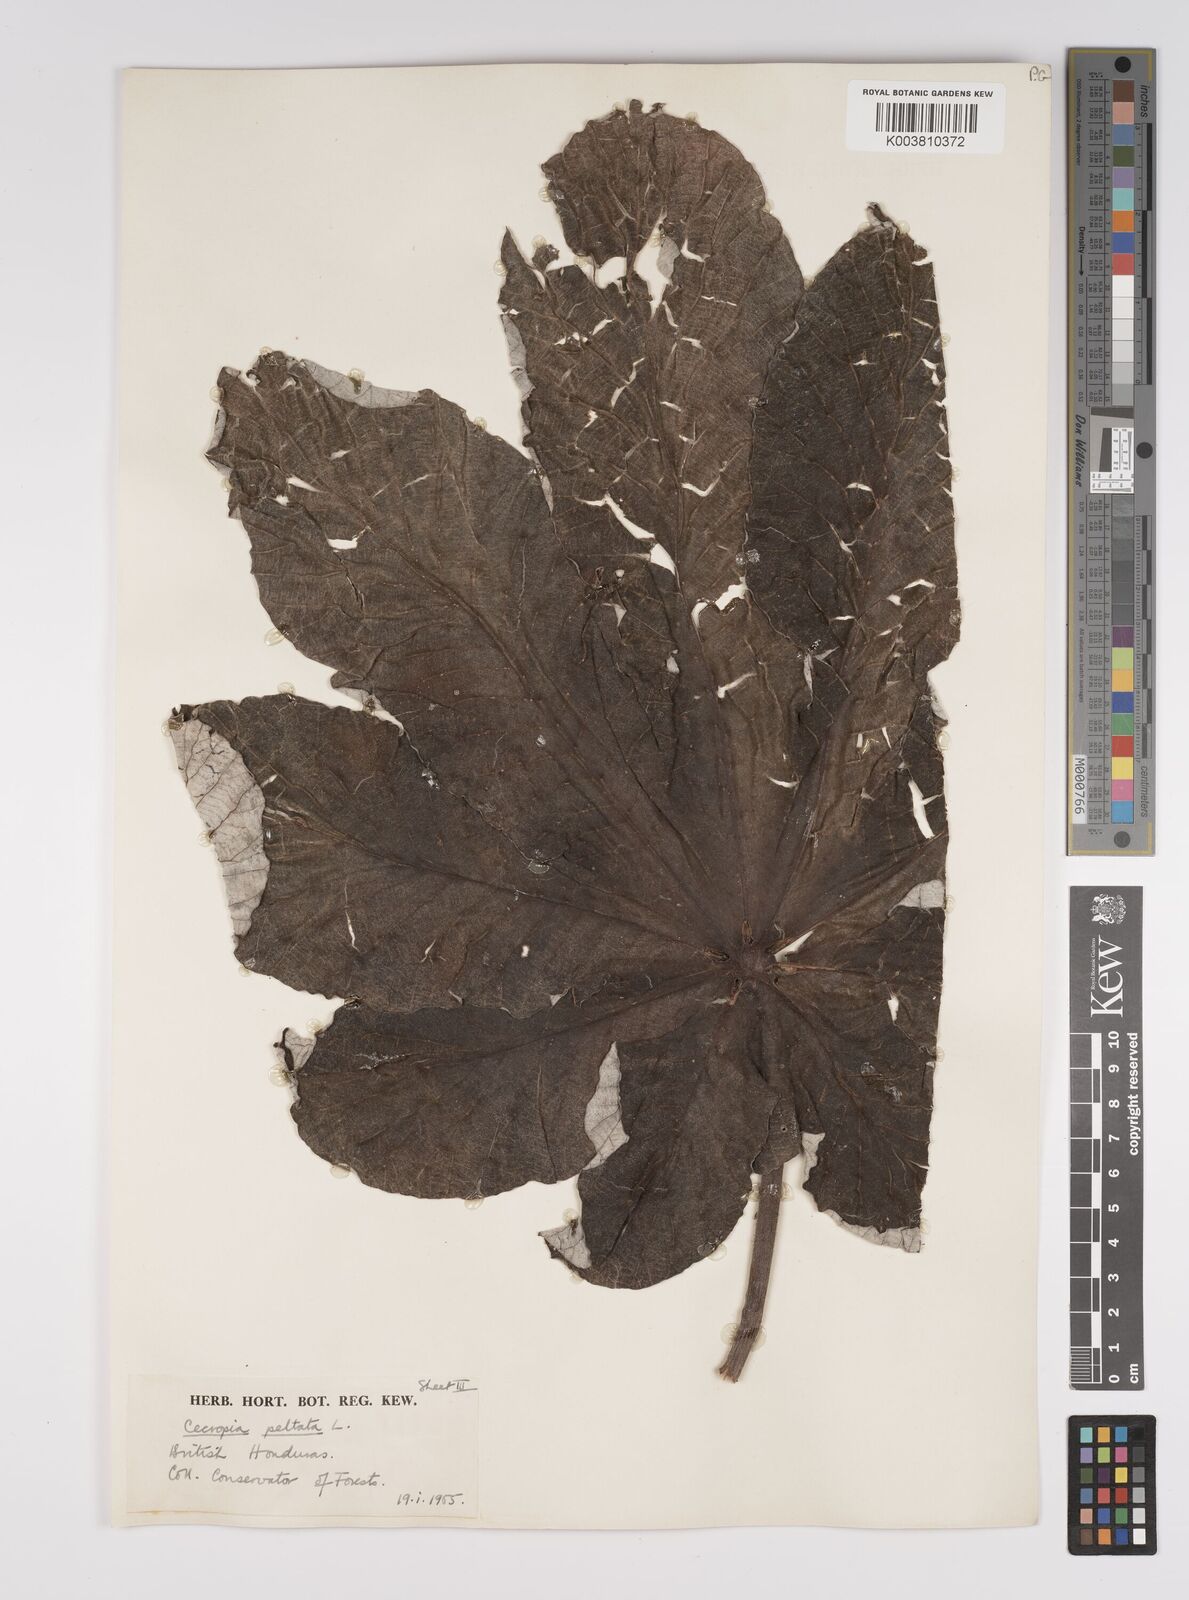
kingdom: Plantae
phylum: Tracheophyta
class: Magnoliopsida
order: Rosales
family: Urticaceae
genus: Cecropia
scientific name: Cecropia peltata
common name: Trumpet-tree
